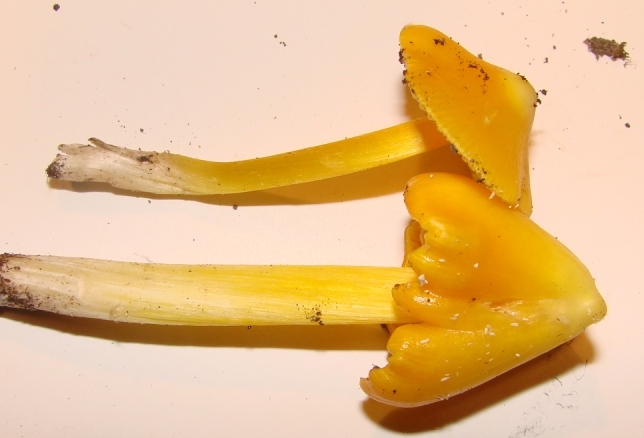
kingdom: Fungi
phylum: Basidiomycota
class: Agaricomycetes
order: Agaricales
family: Hygrophoraceae
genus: Hygrocybe
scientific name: Hygrocybe acutoconica
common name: spidspuklet vokshat
